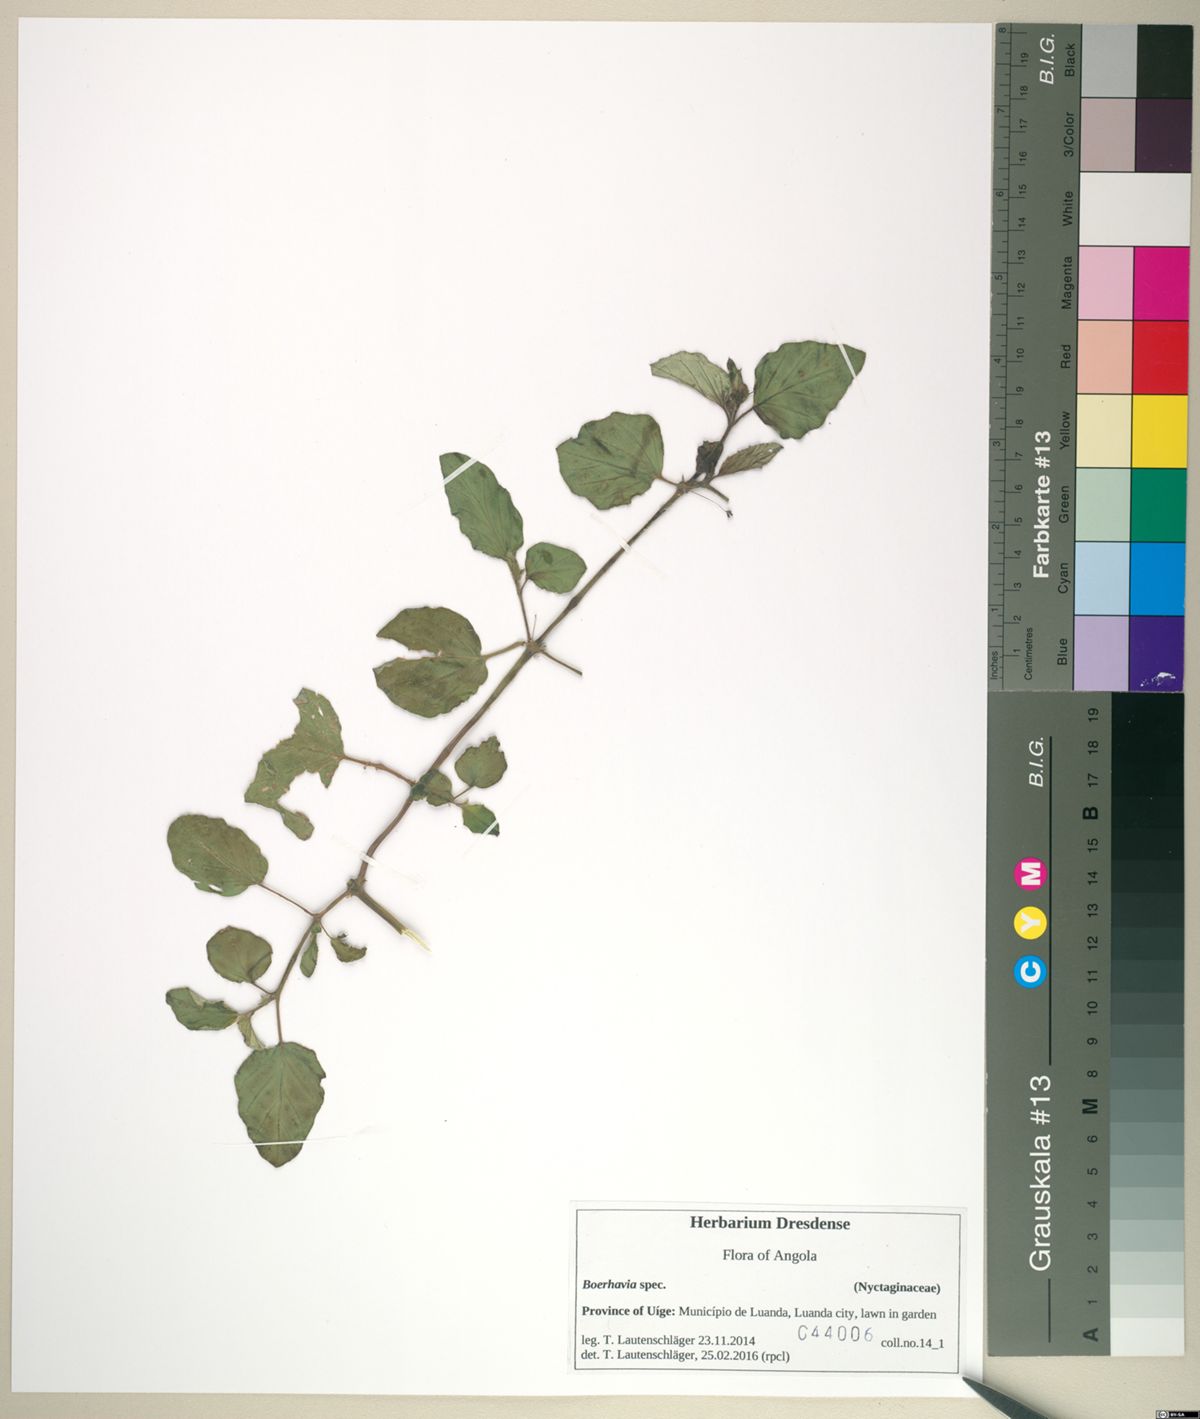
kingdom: Plantae
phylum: Tracheophyta
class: Magnoliopsida
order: Caryophyllales
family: Nyctaginaceae
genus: Boerhavia
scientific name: Boerhavia diffusa
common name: Red spiderling
